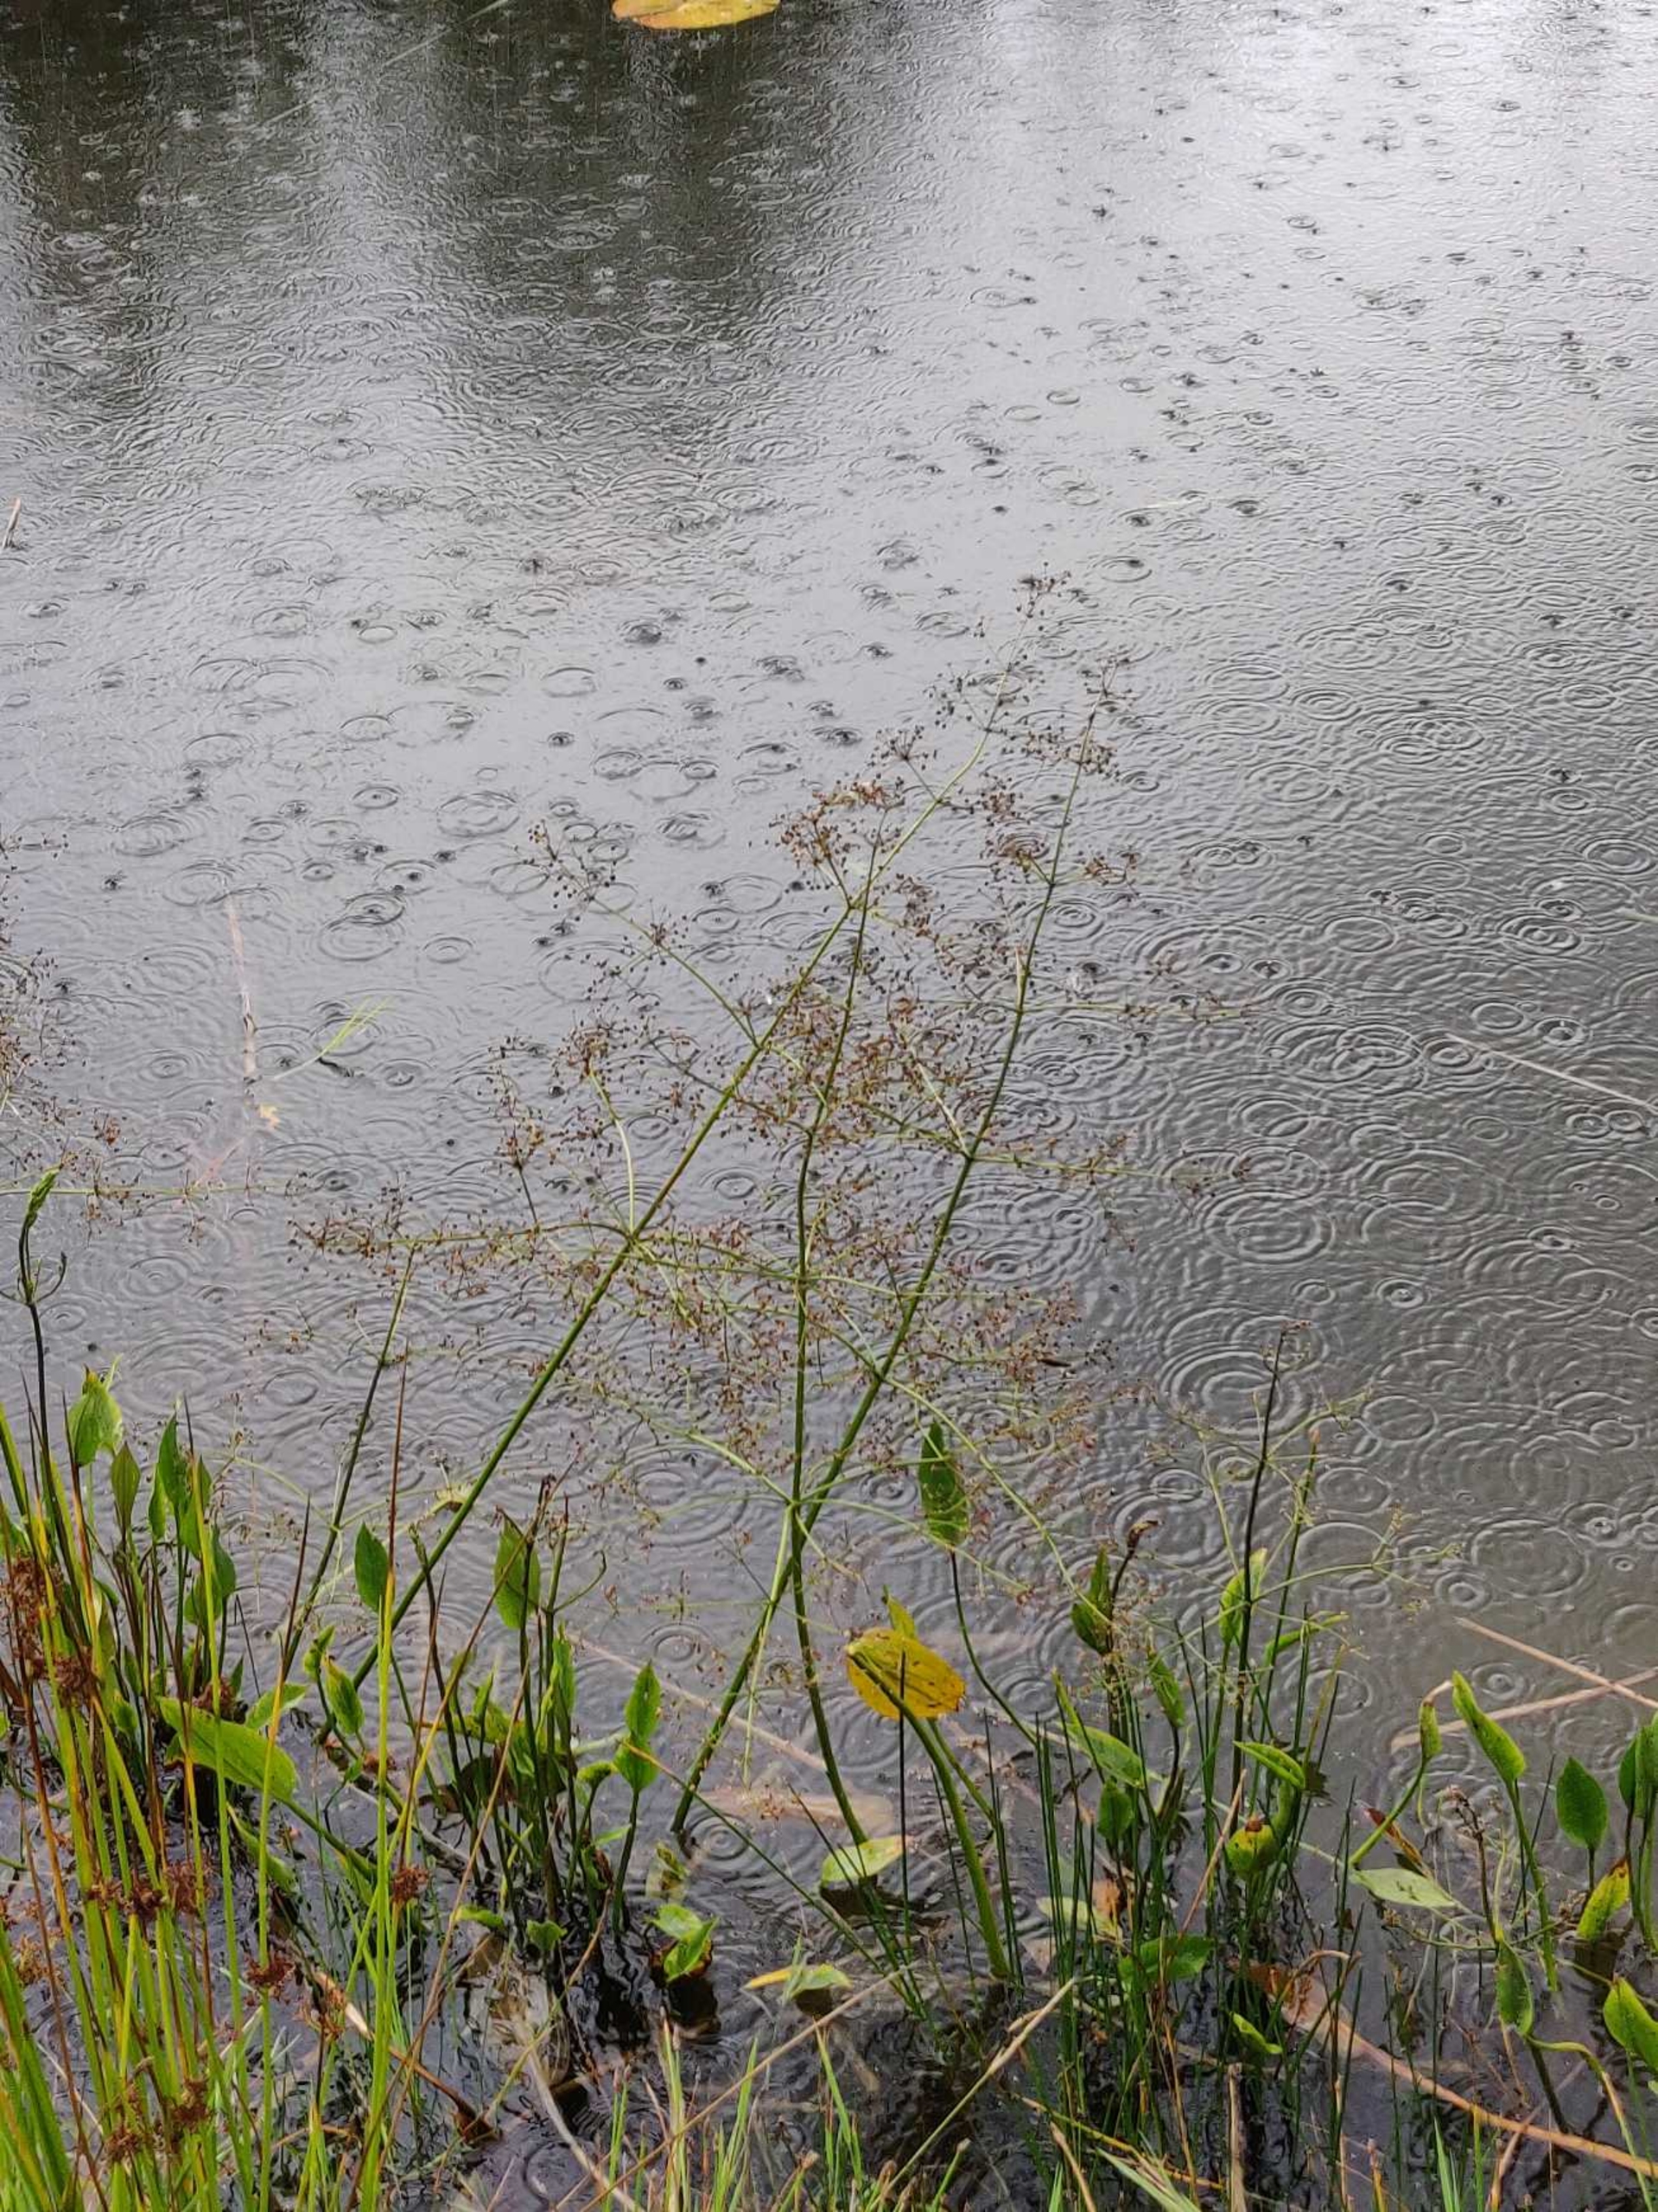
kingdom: Plantae
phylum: Tracheophyta
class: Liliopsida
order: Alismatales
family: Alismataceae
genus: Alisma
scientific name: Alisma plantago-aquatica
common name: Vejbred-skeblad
